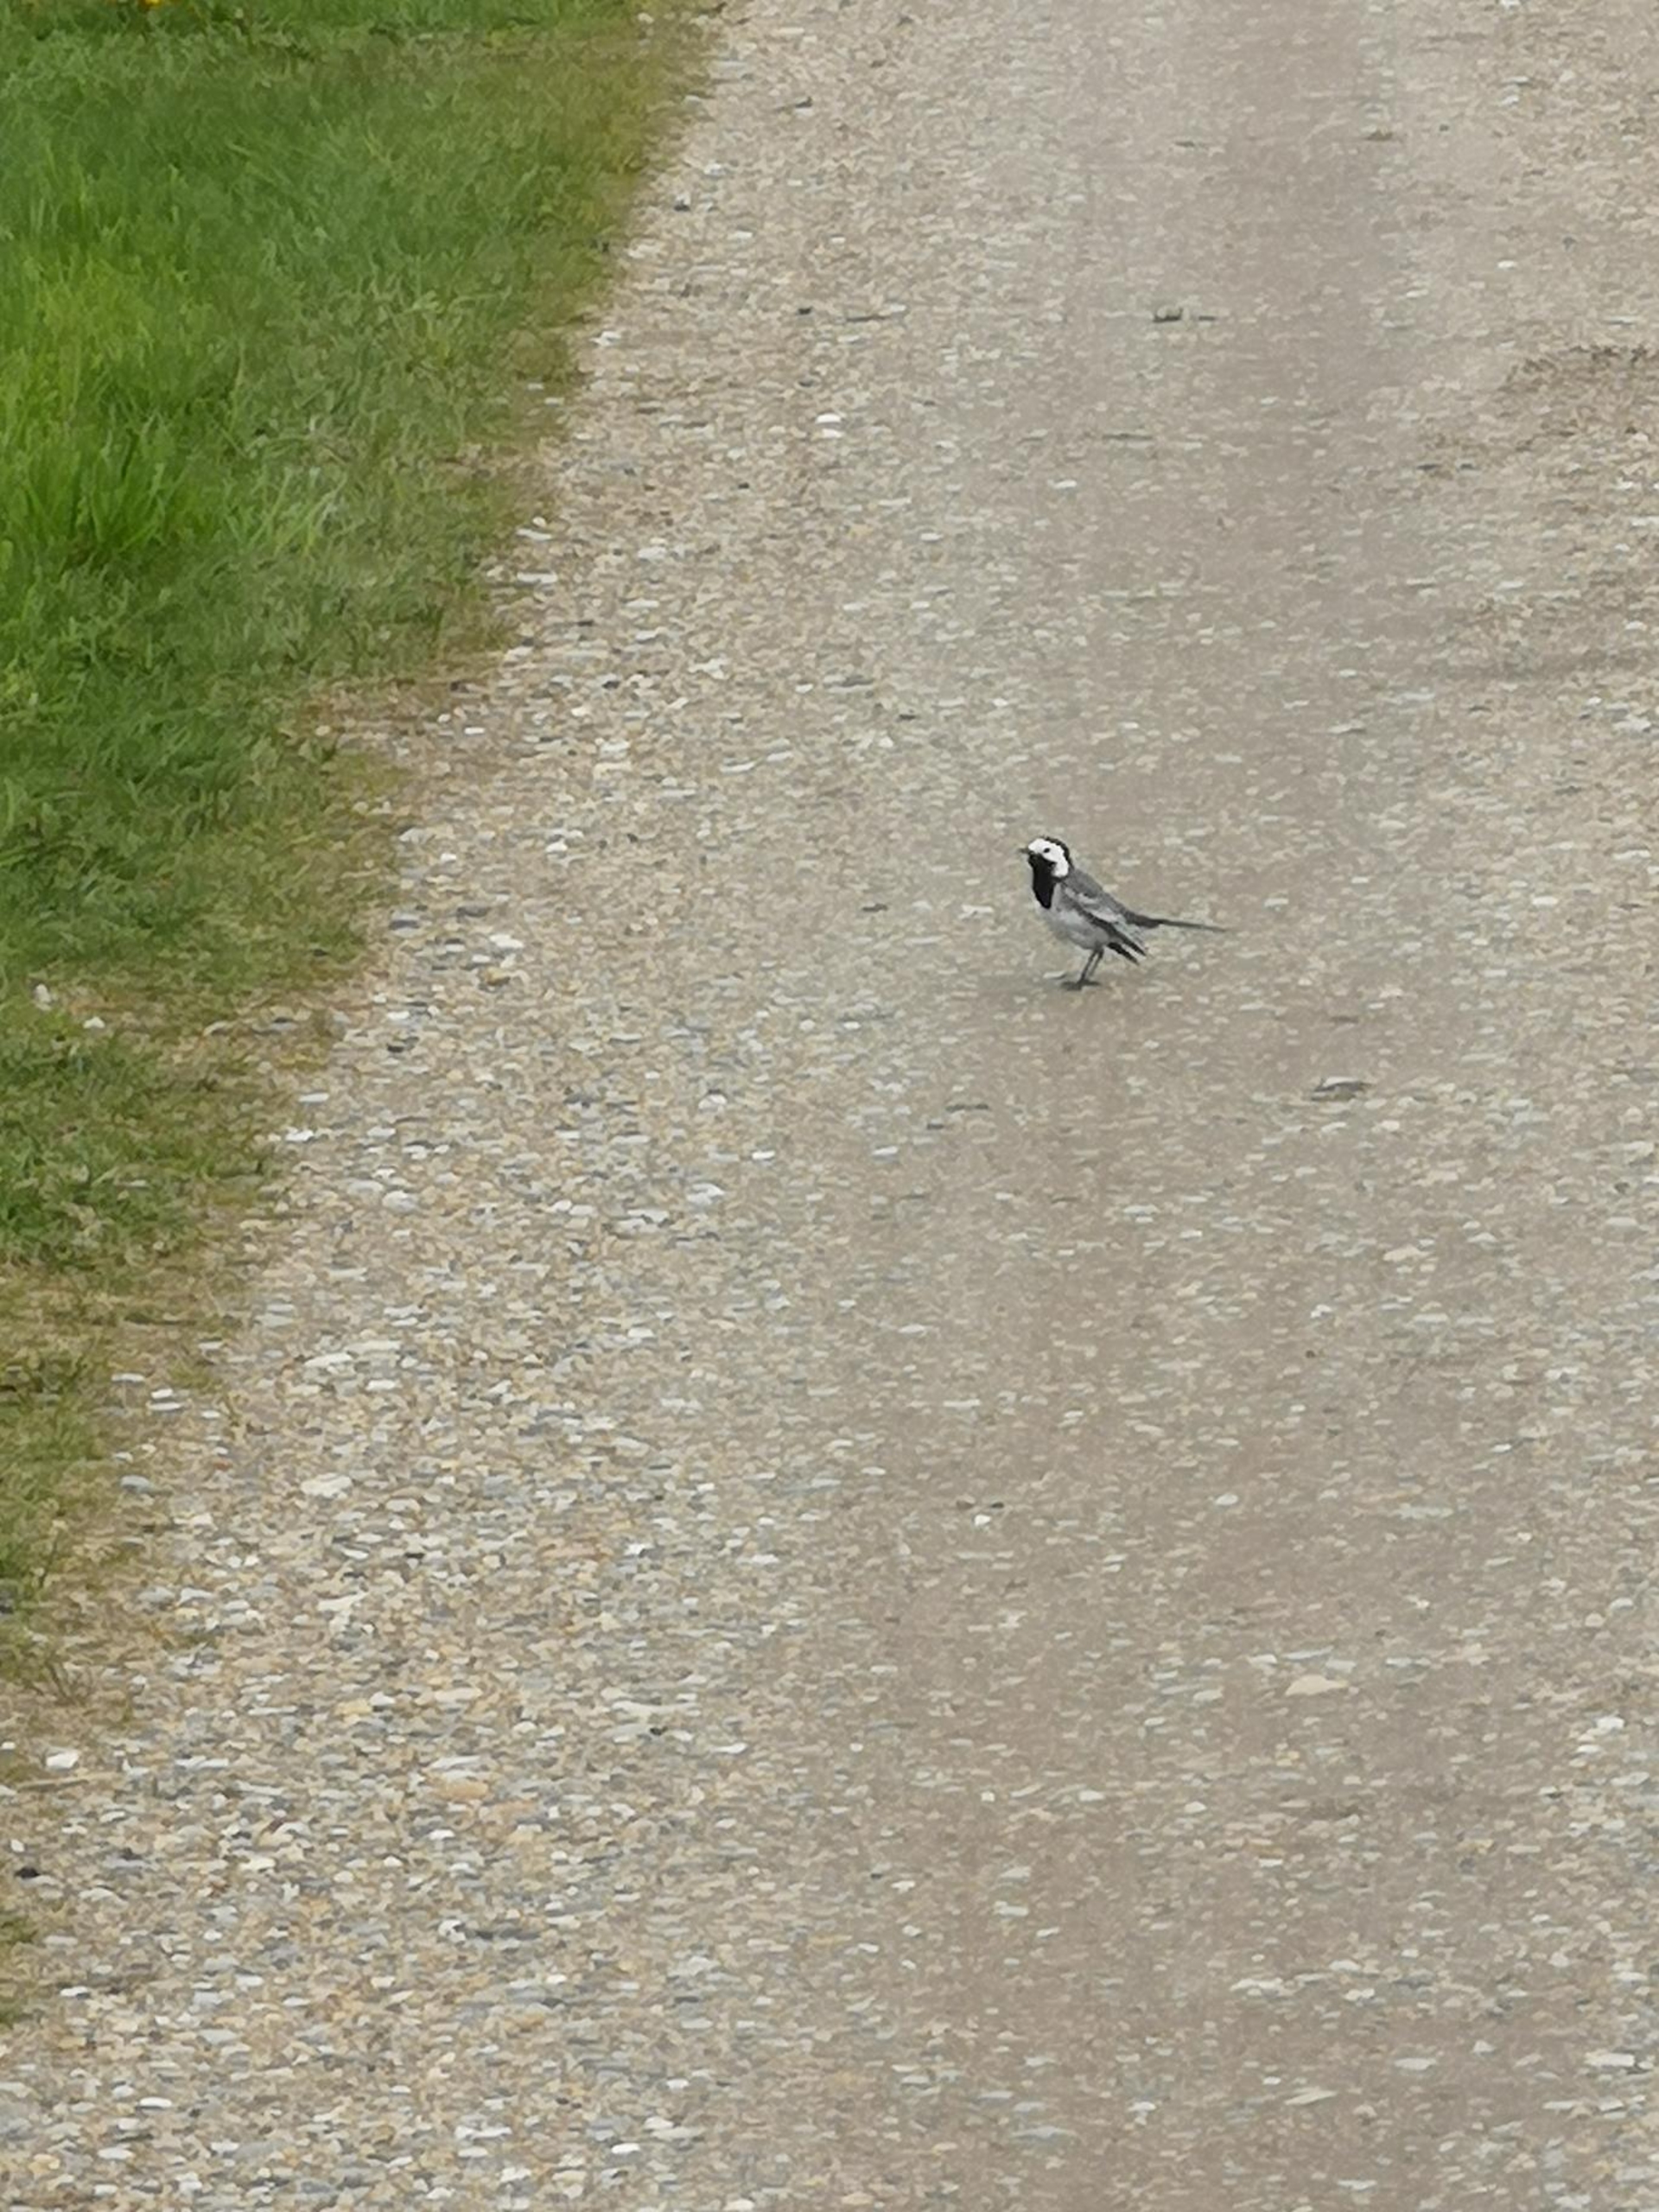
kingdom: Animalia
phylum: Chordata
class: Aves
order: Passeriformes
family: Motacillidae
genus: Motacilla
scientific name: Motacilla alba
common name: Hvid vipstjert
